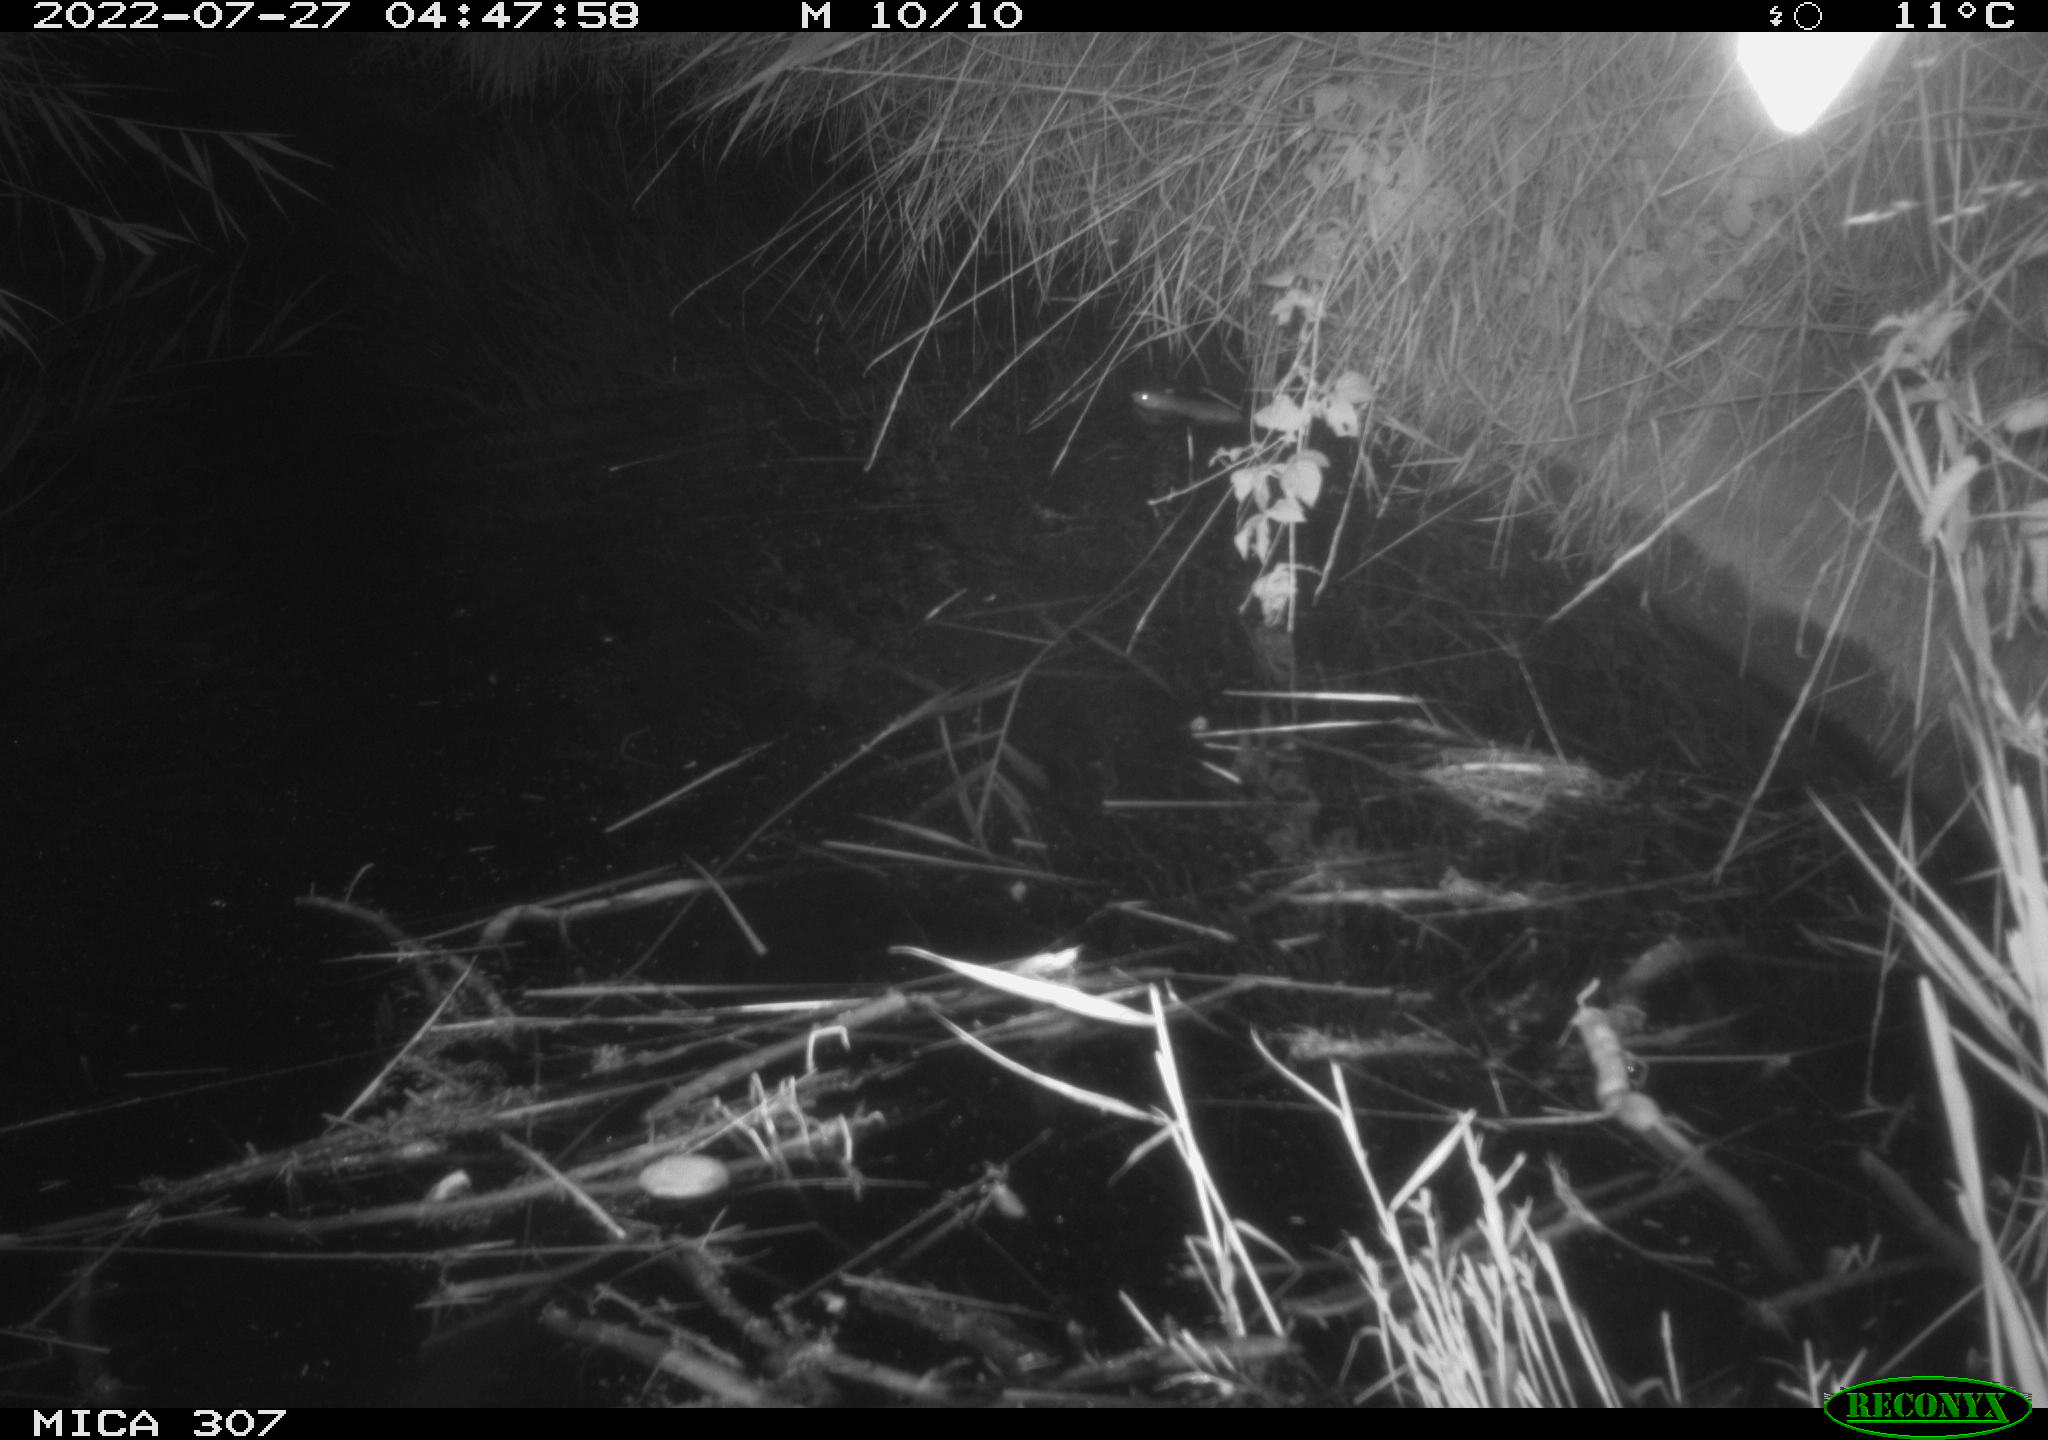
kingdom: Animalia
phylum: Chordata
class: Mammalia
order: Rodentia
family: Muridae
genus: Rattus
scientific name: Rattus norvegicus
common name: Brown rat
